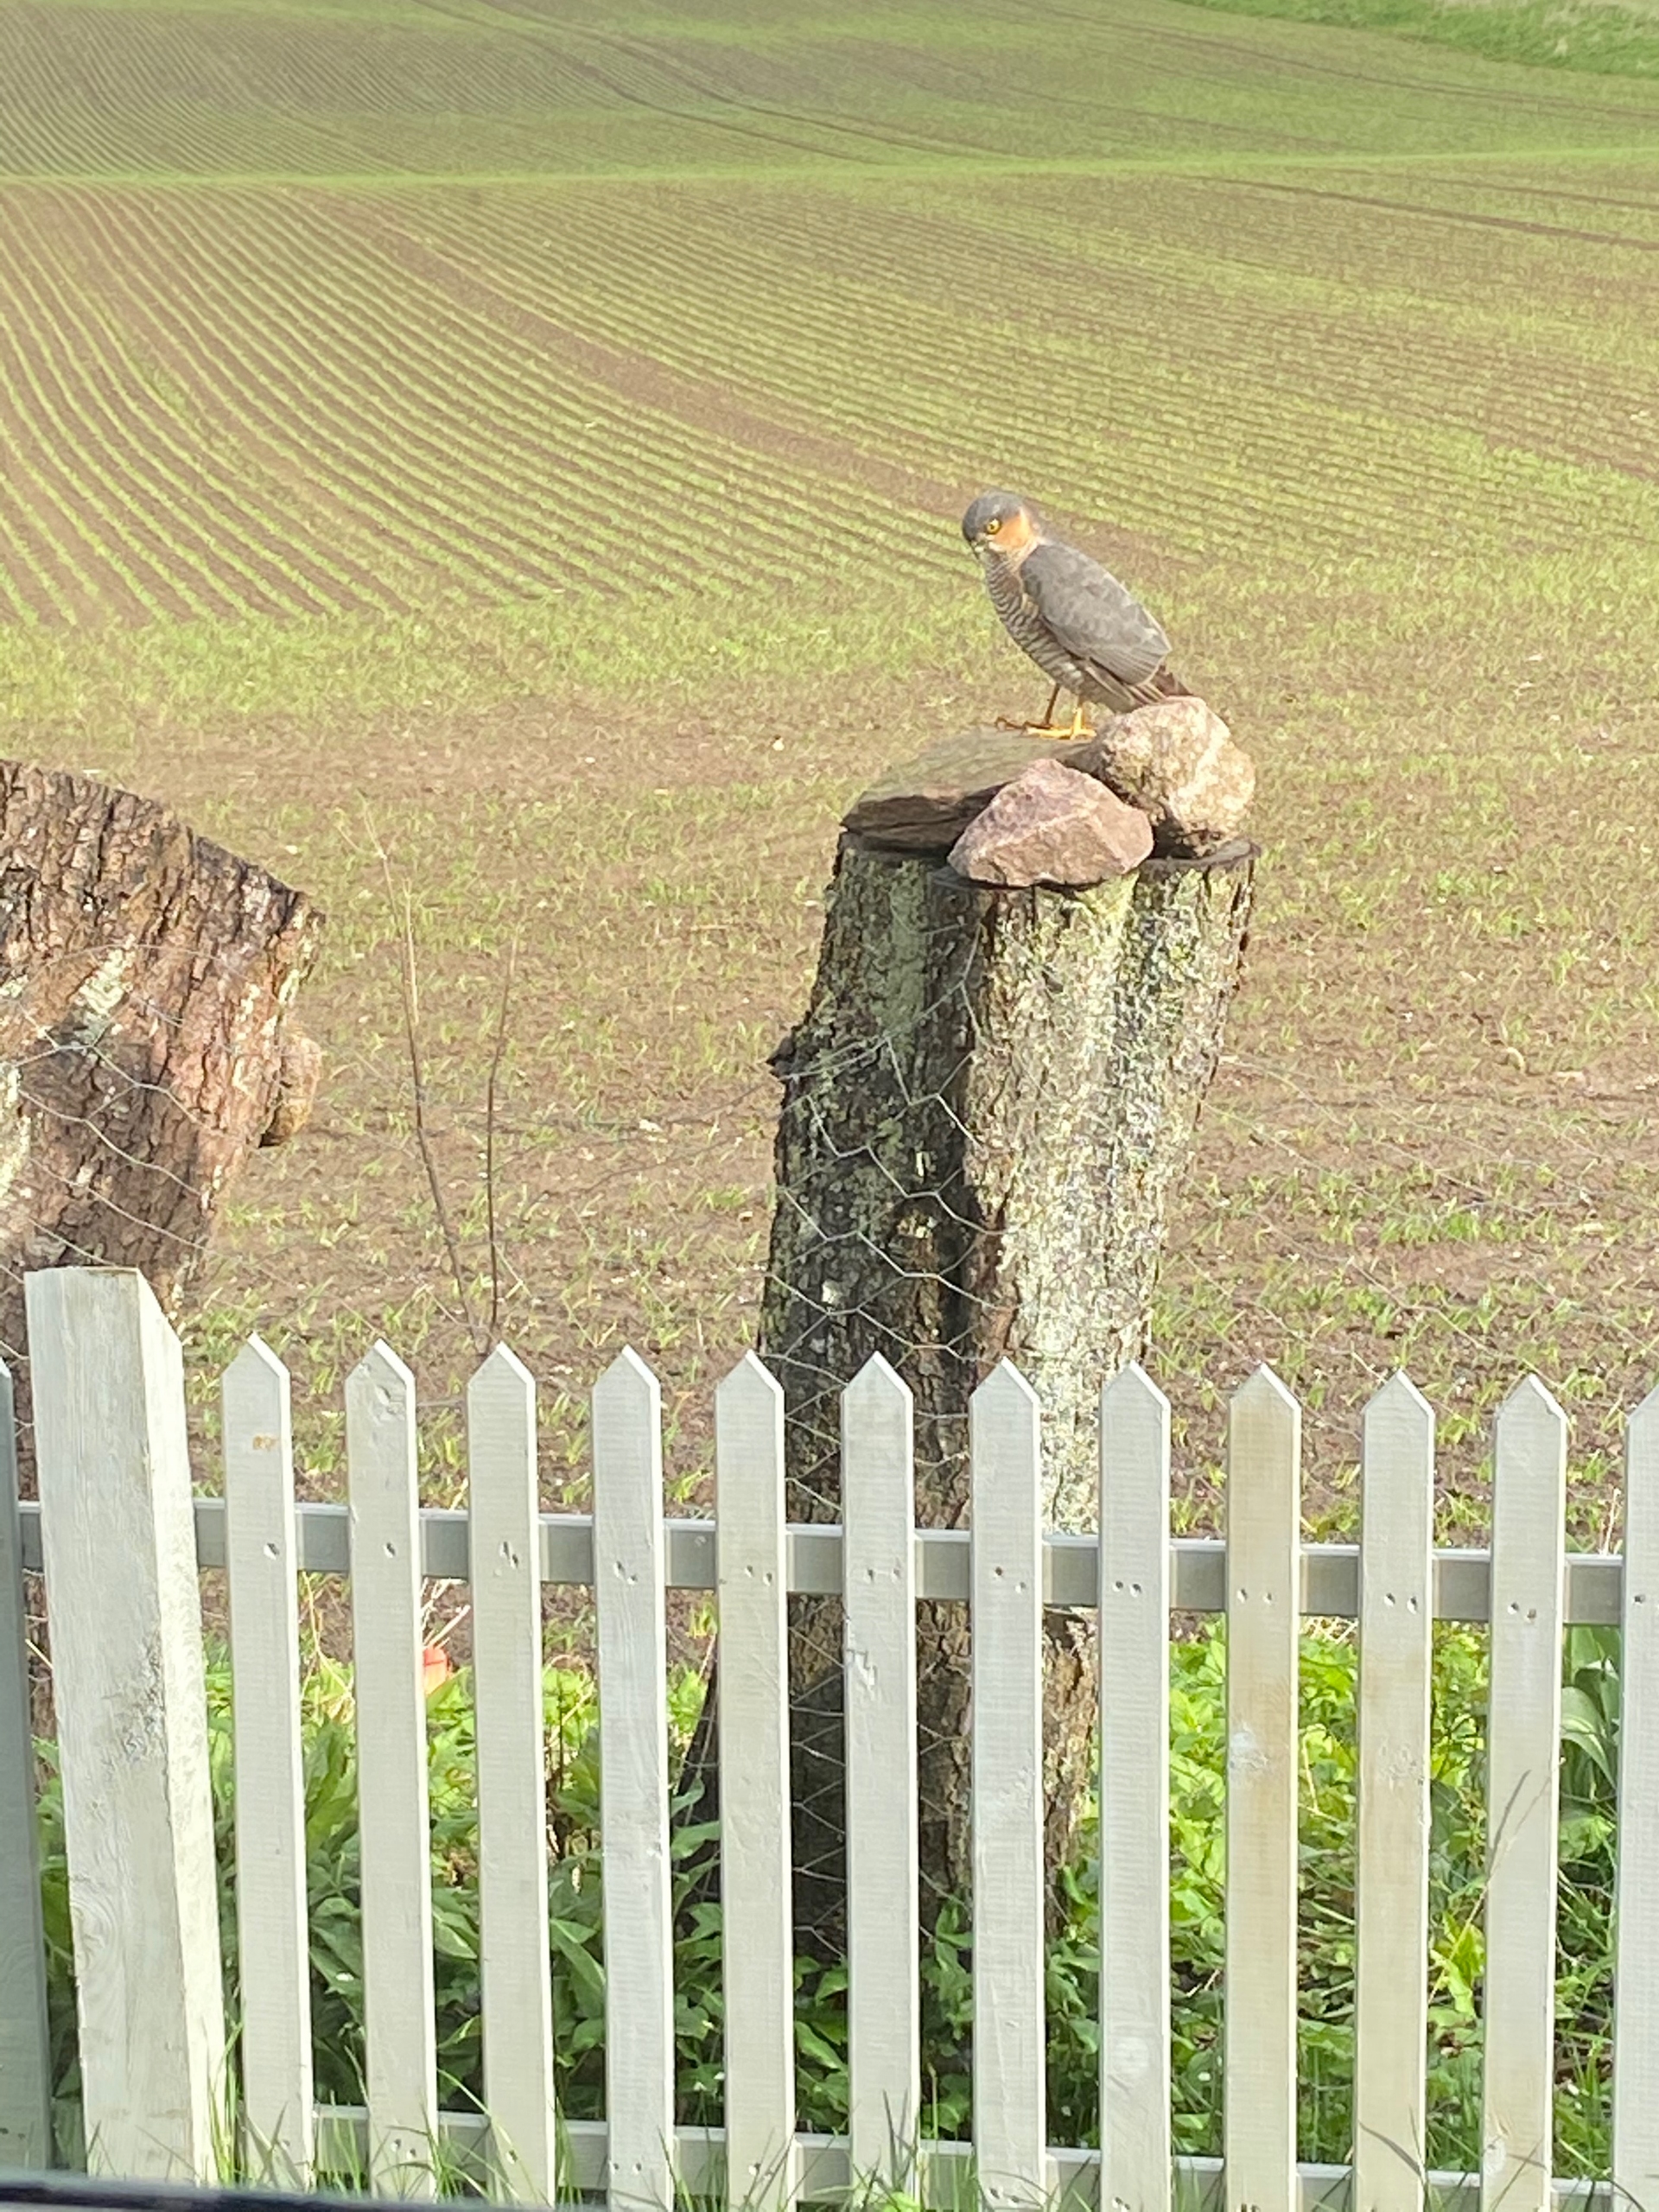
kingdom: Animalia
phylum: Chordata
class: Aves
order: Accipitriformes
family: Accipitridae
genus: Accipiter
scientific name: Accipiter nisus
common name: Spurvehøg
